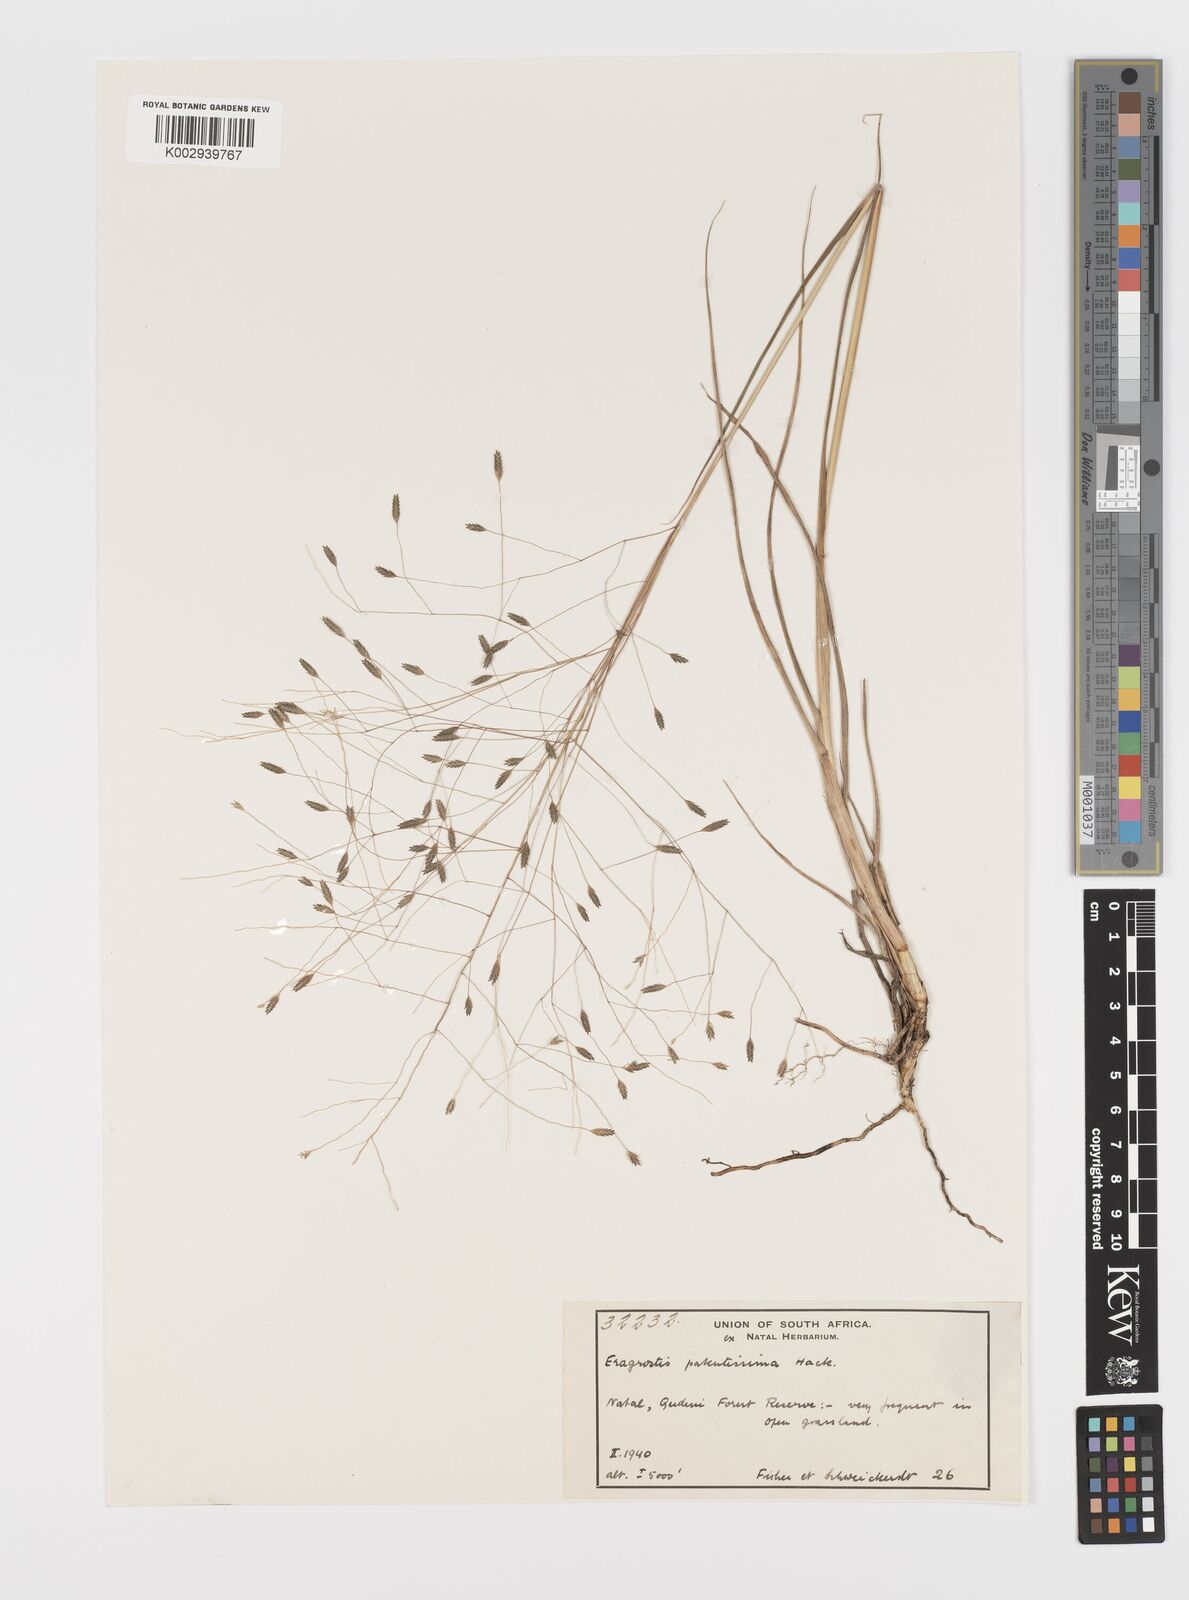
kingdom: Plantae
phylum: Tracheophyta
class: Liliopsida
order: Poales
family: Poaceae
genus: Eragrostis
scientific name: Eragrostis patentissima
